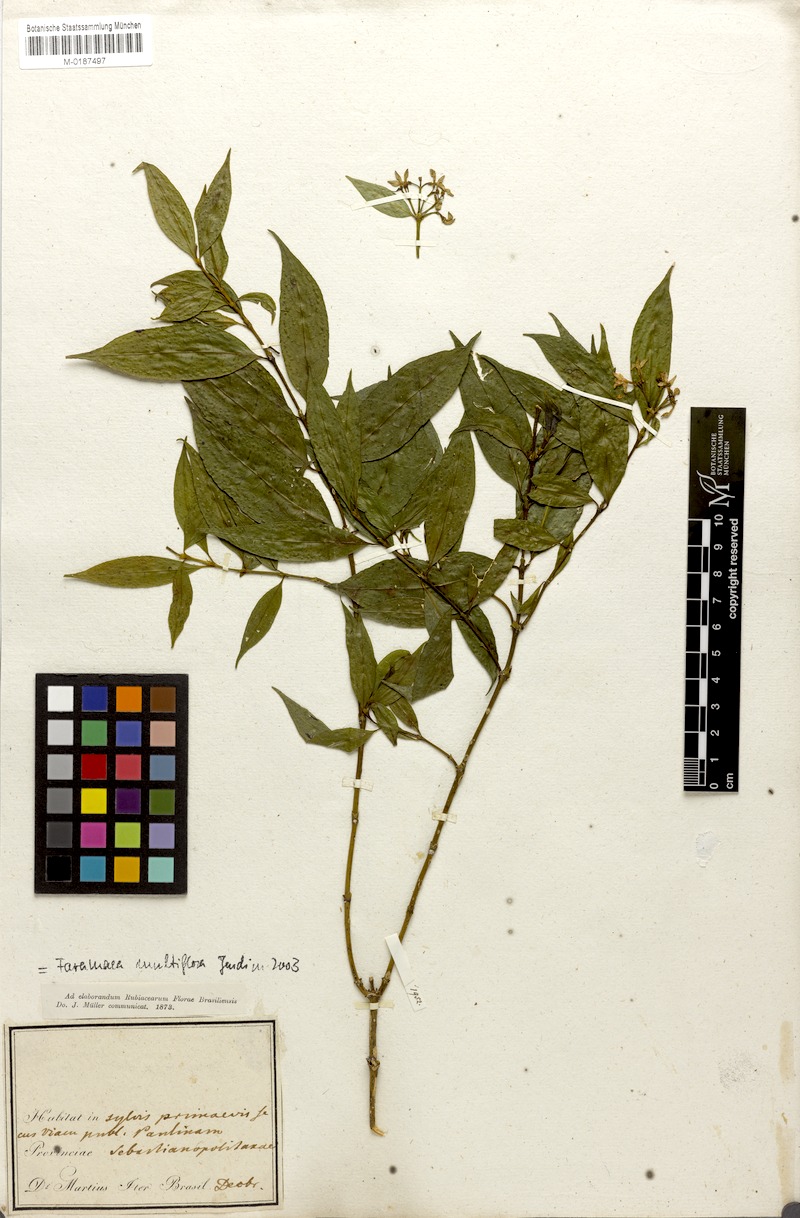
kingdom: Plantae
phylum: Tracheophyta
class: Magnoliopsida
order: Gentianales
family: Rubiaceae
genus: Faramea
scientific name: Faramea multiflora
